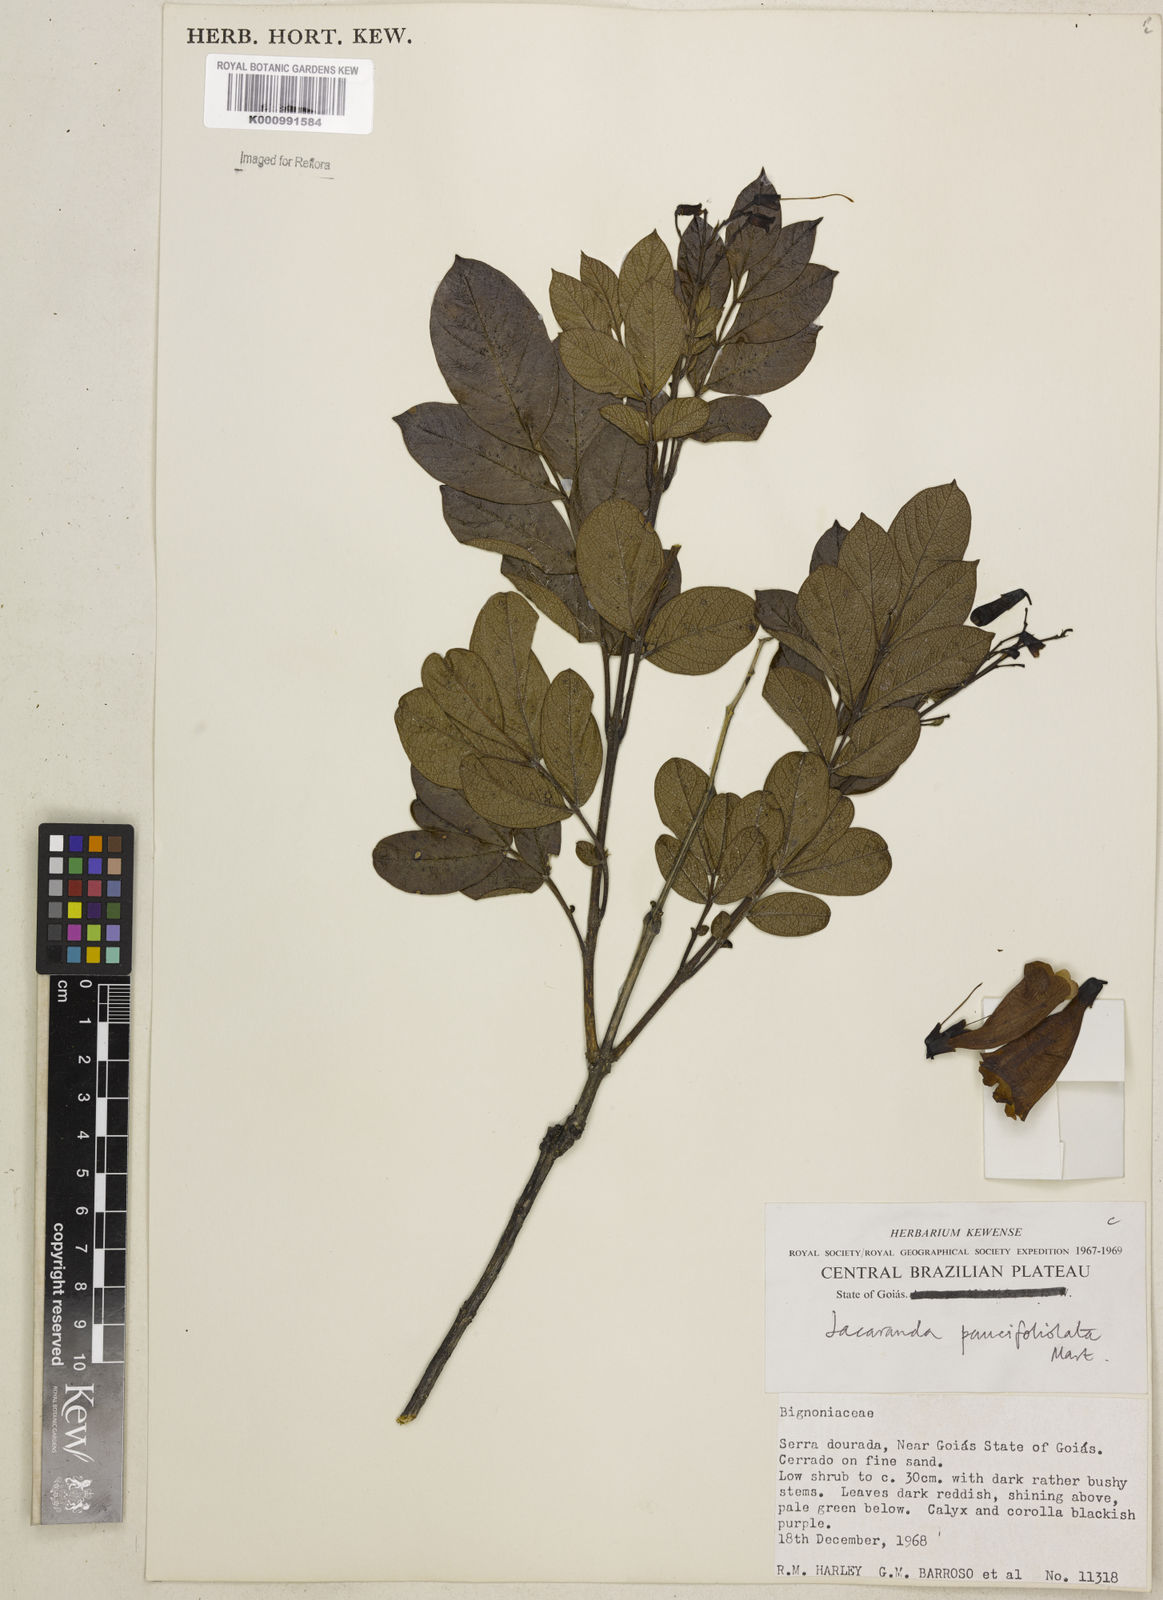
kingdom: Plantae
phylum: Tracheophyta
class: Magnoliopsida
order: Lamiales
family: Bignoniaceae
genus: Jacaranda
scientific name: Jacaranda
